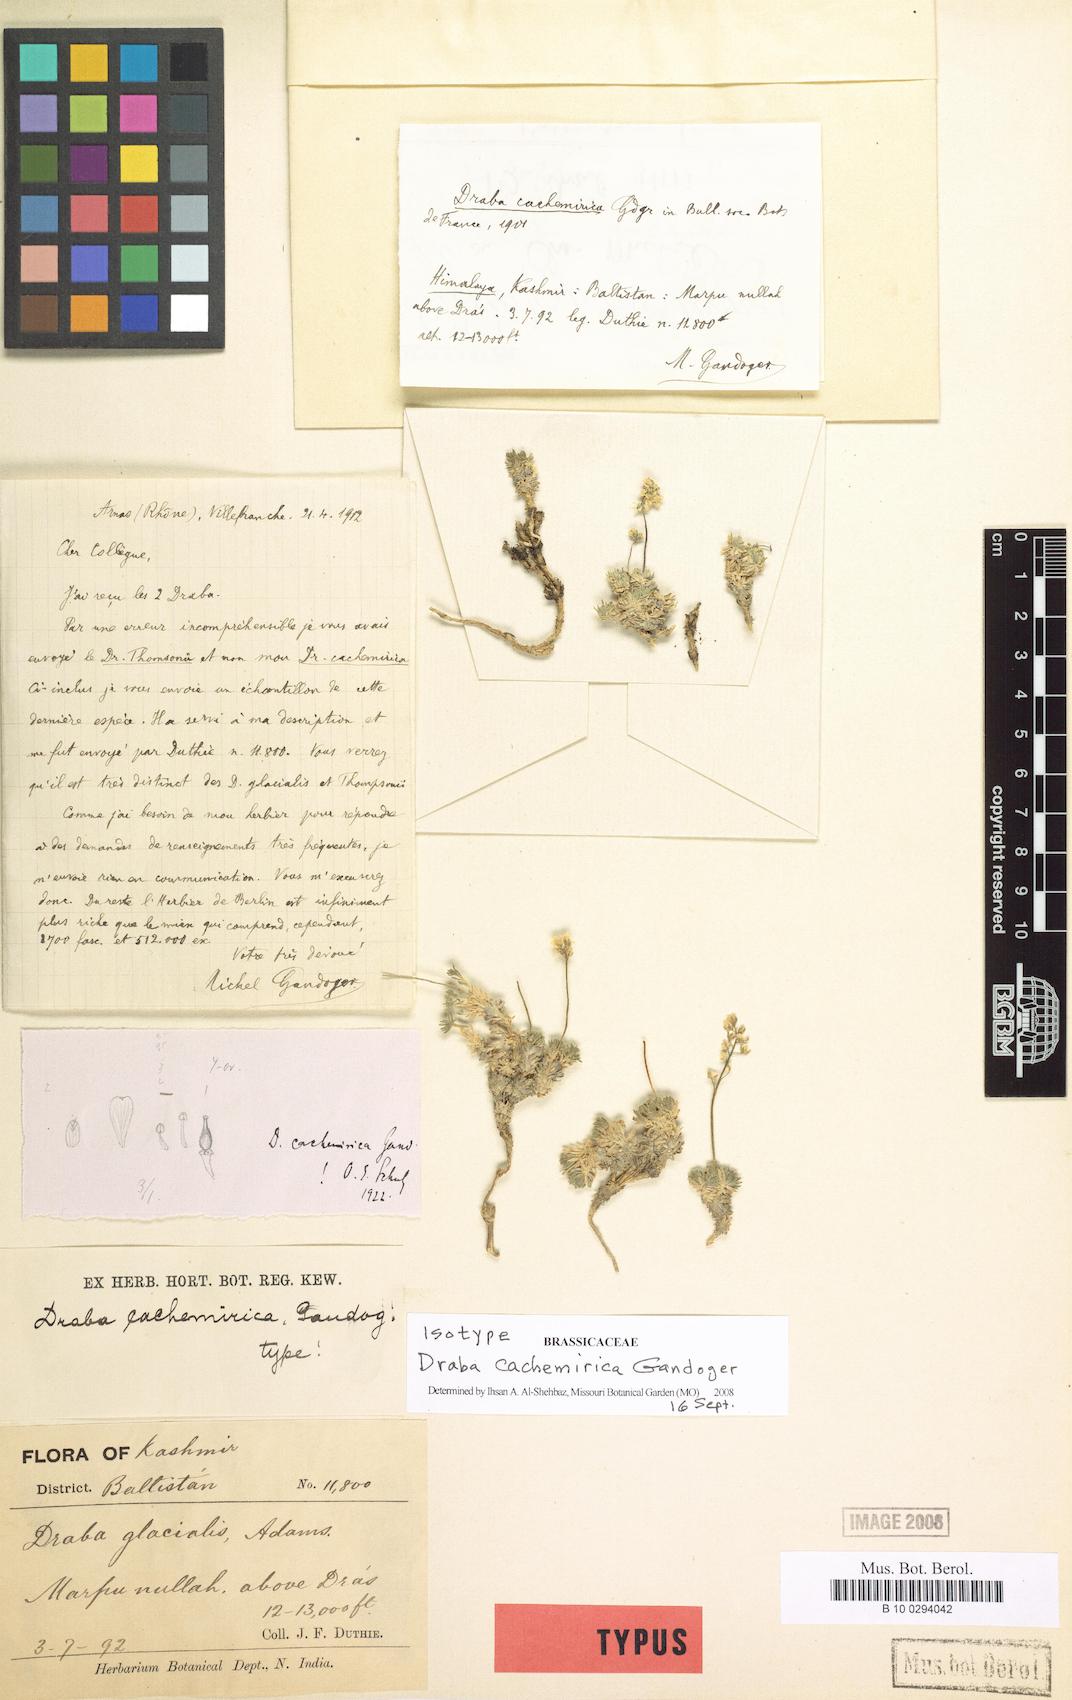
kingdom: Plantae
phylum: Tracheophyta
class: Magnoliopsida
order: Brassicales
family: Brassicaceae
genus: Draba
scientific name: Draba cachemirica
